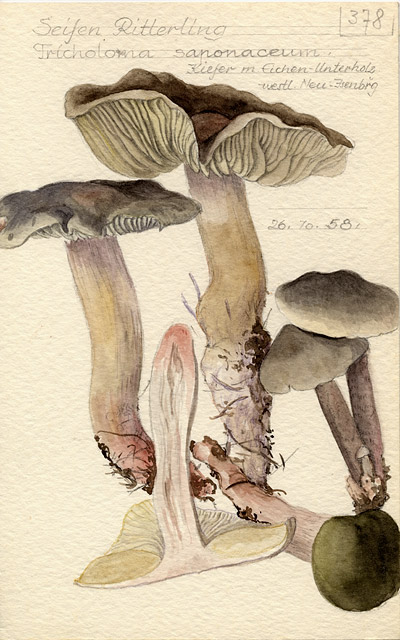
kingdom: Fungi
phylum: Basidiomycota
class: Agaricomycetes
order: Agaricales
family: Tricholomataceae
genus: Tricholoma
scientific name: Tricholoma saponaceum
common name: Soapy trich
